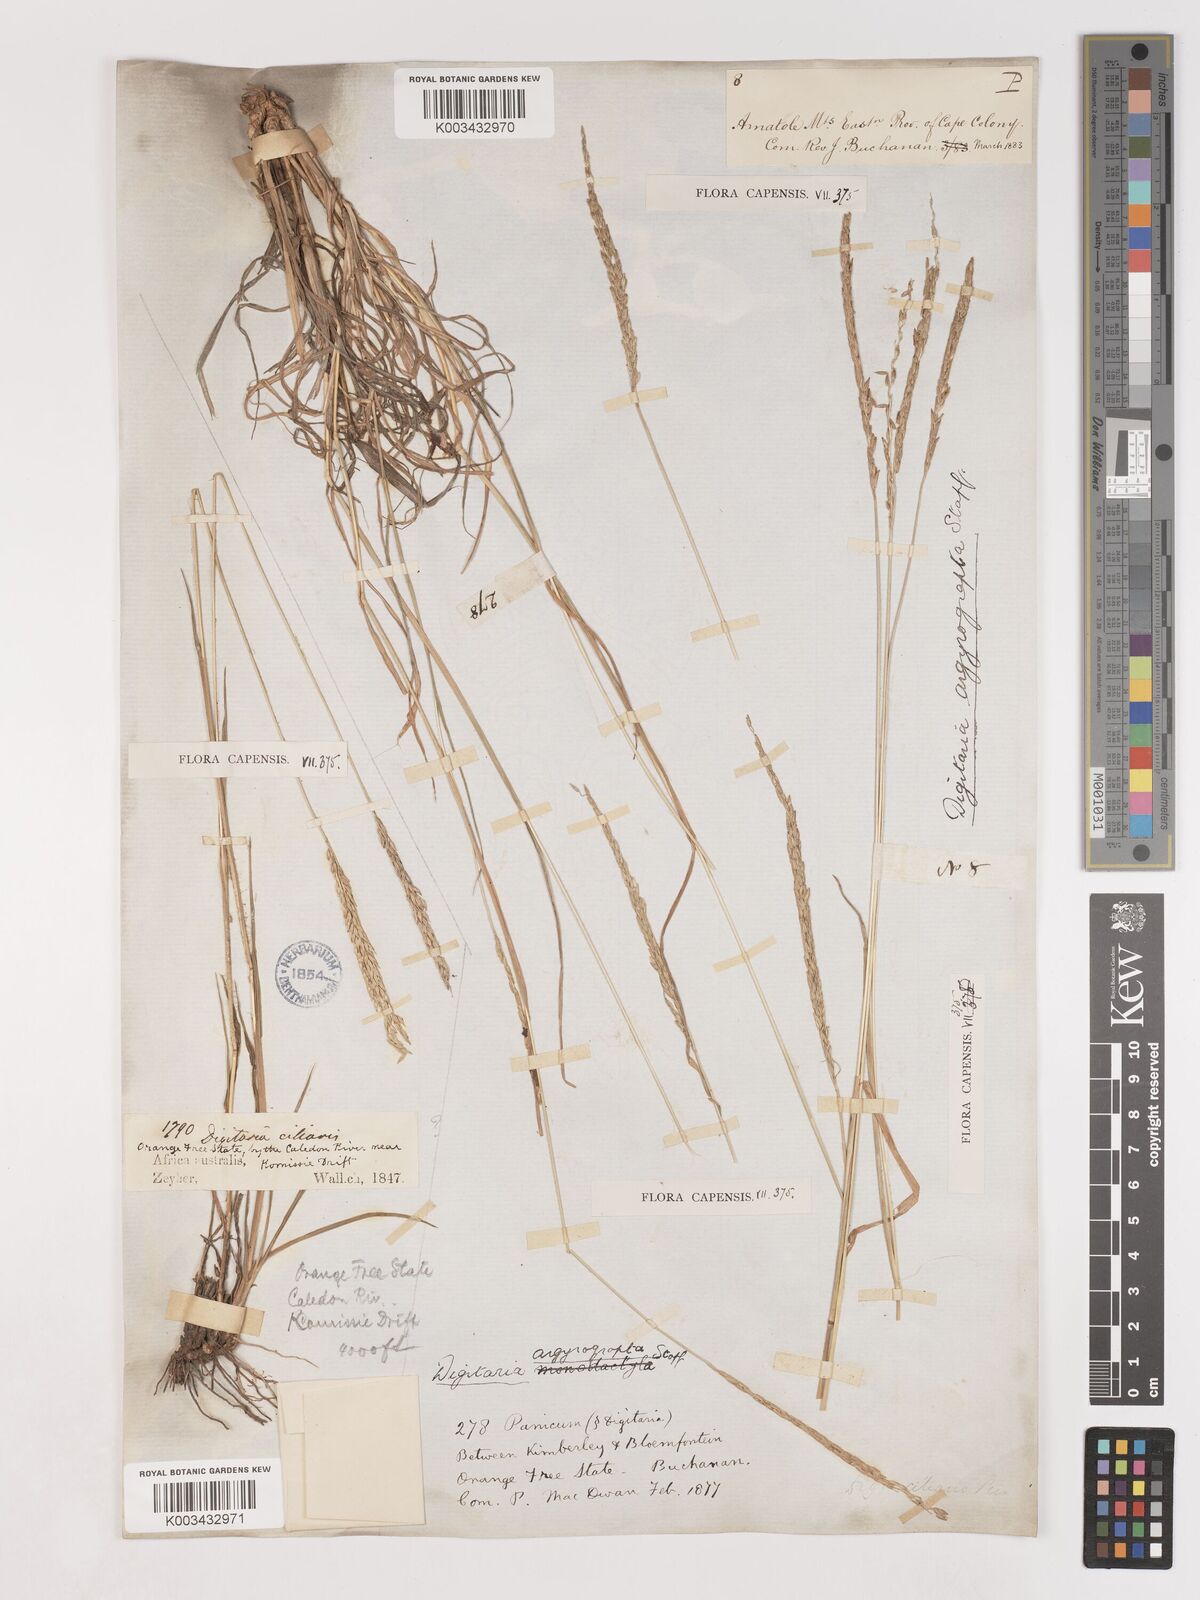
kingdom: Plantae
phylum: Tracheophyta
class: Liliopsida
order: Poales
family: Poaceae
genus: Digitaria
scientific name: Digitaria argyrograpta
